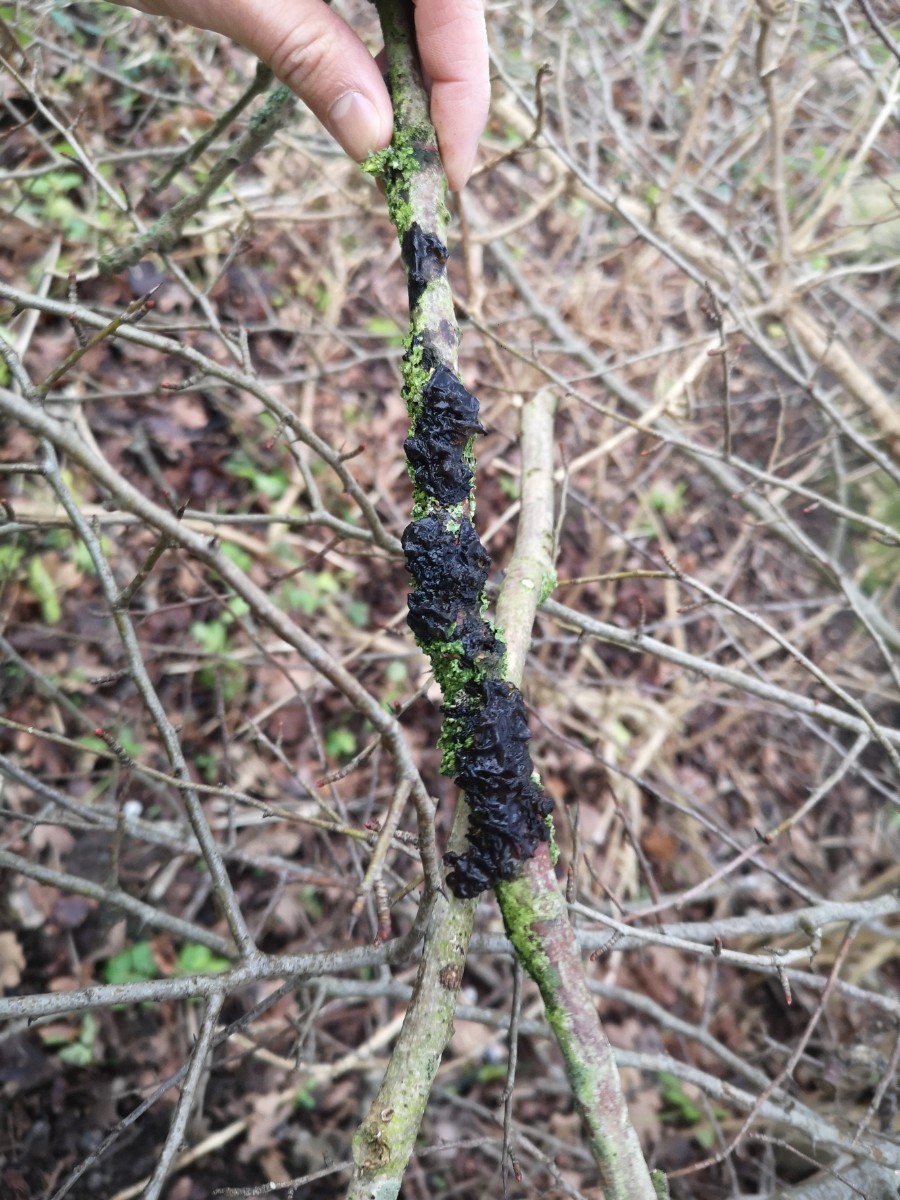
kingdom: Fungi
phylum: Basidiomycota
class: Agaricomycetes
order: Auriculariales
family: Auriculariaceae
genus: Exidia
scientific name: Exidia nigricans
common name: almindelig bævretop
